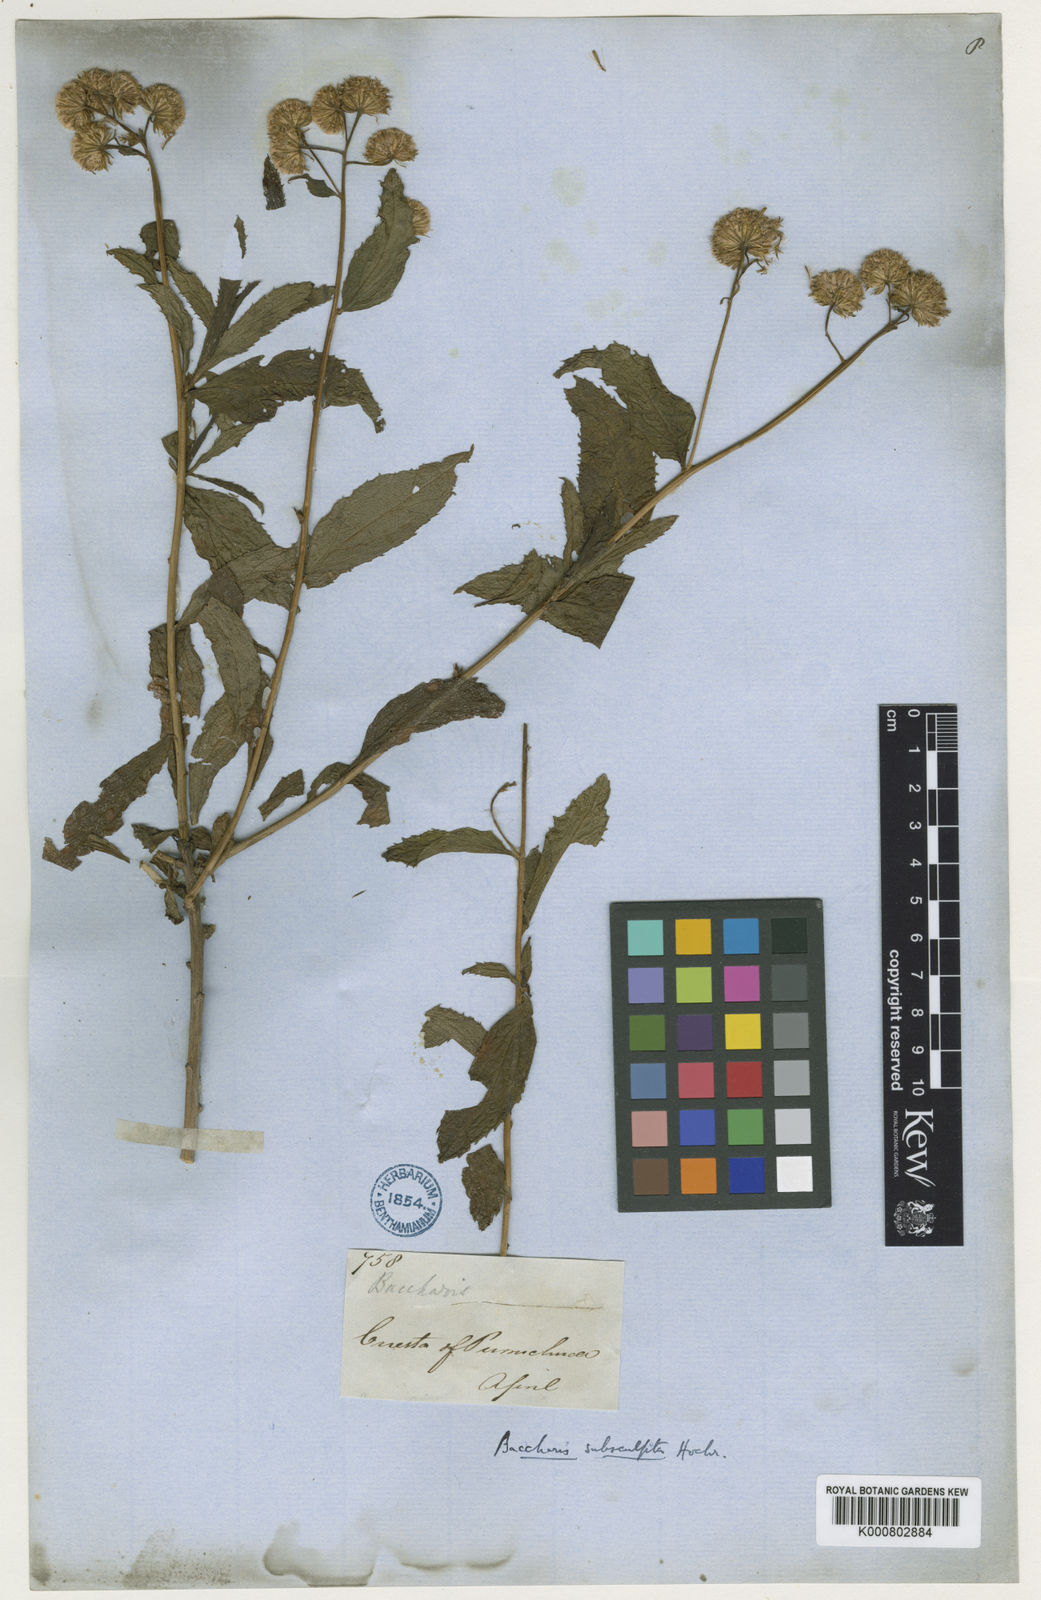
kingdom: Plantae
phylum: Tracheophyta
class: Magnoliopsida
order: Asterales
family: Asteraceae
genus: Baccharis
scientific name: Baccharis pulchella
